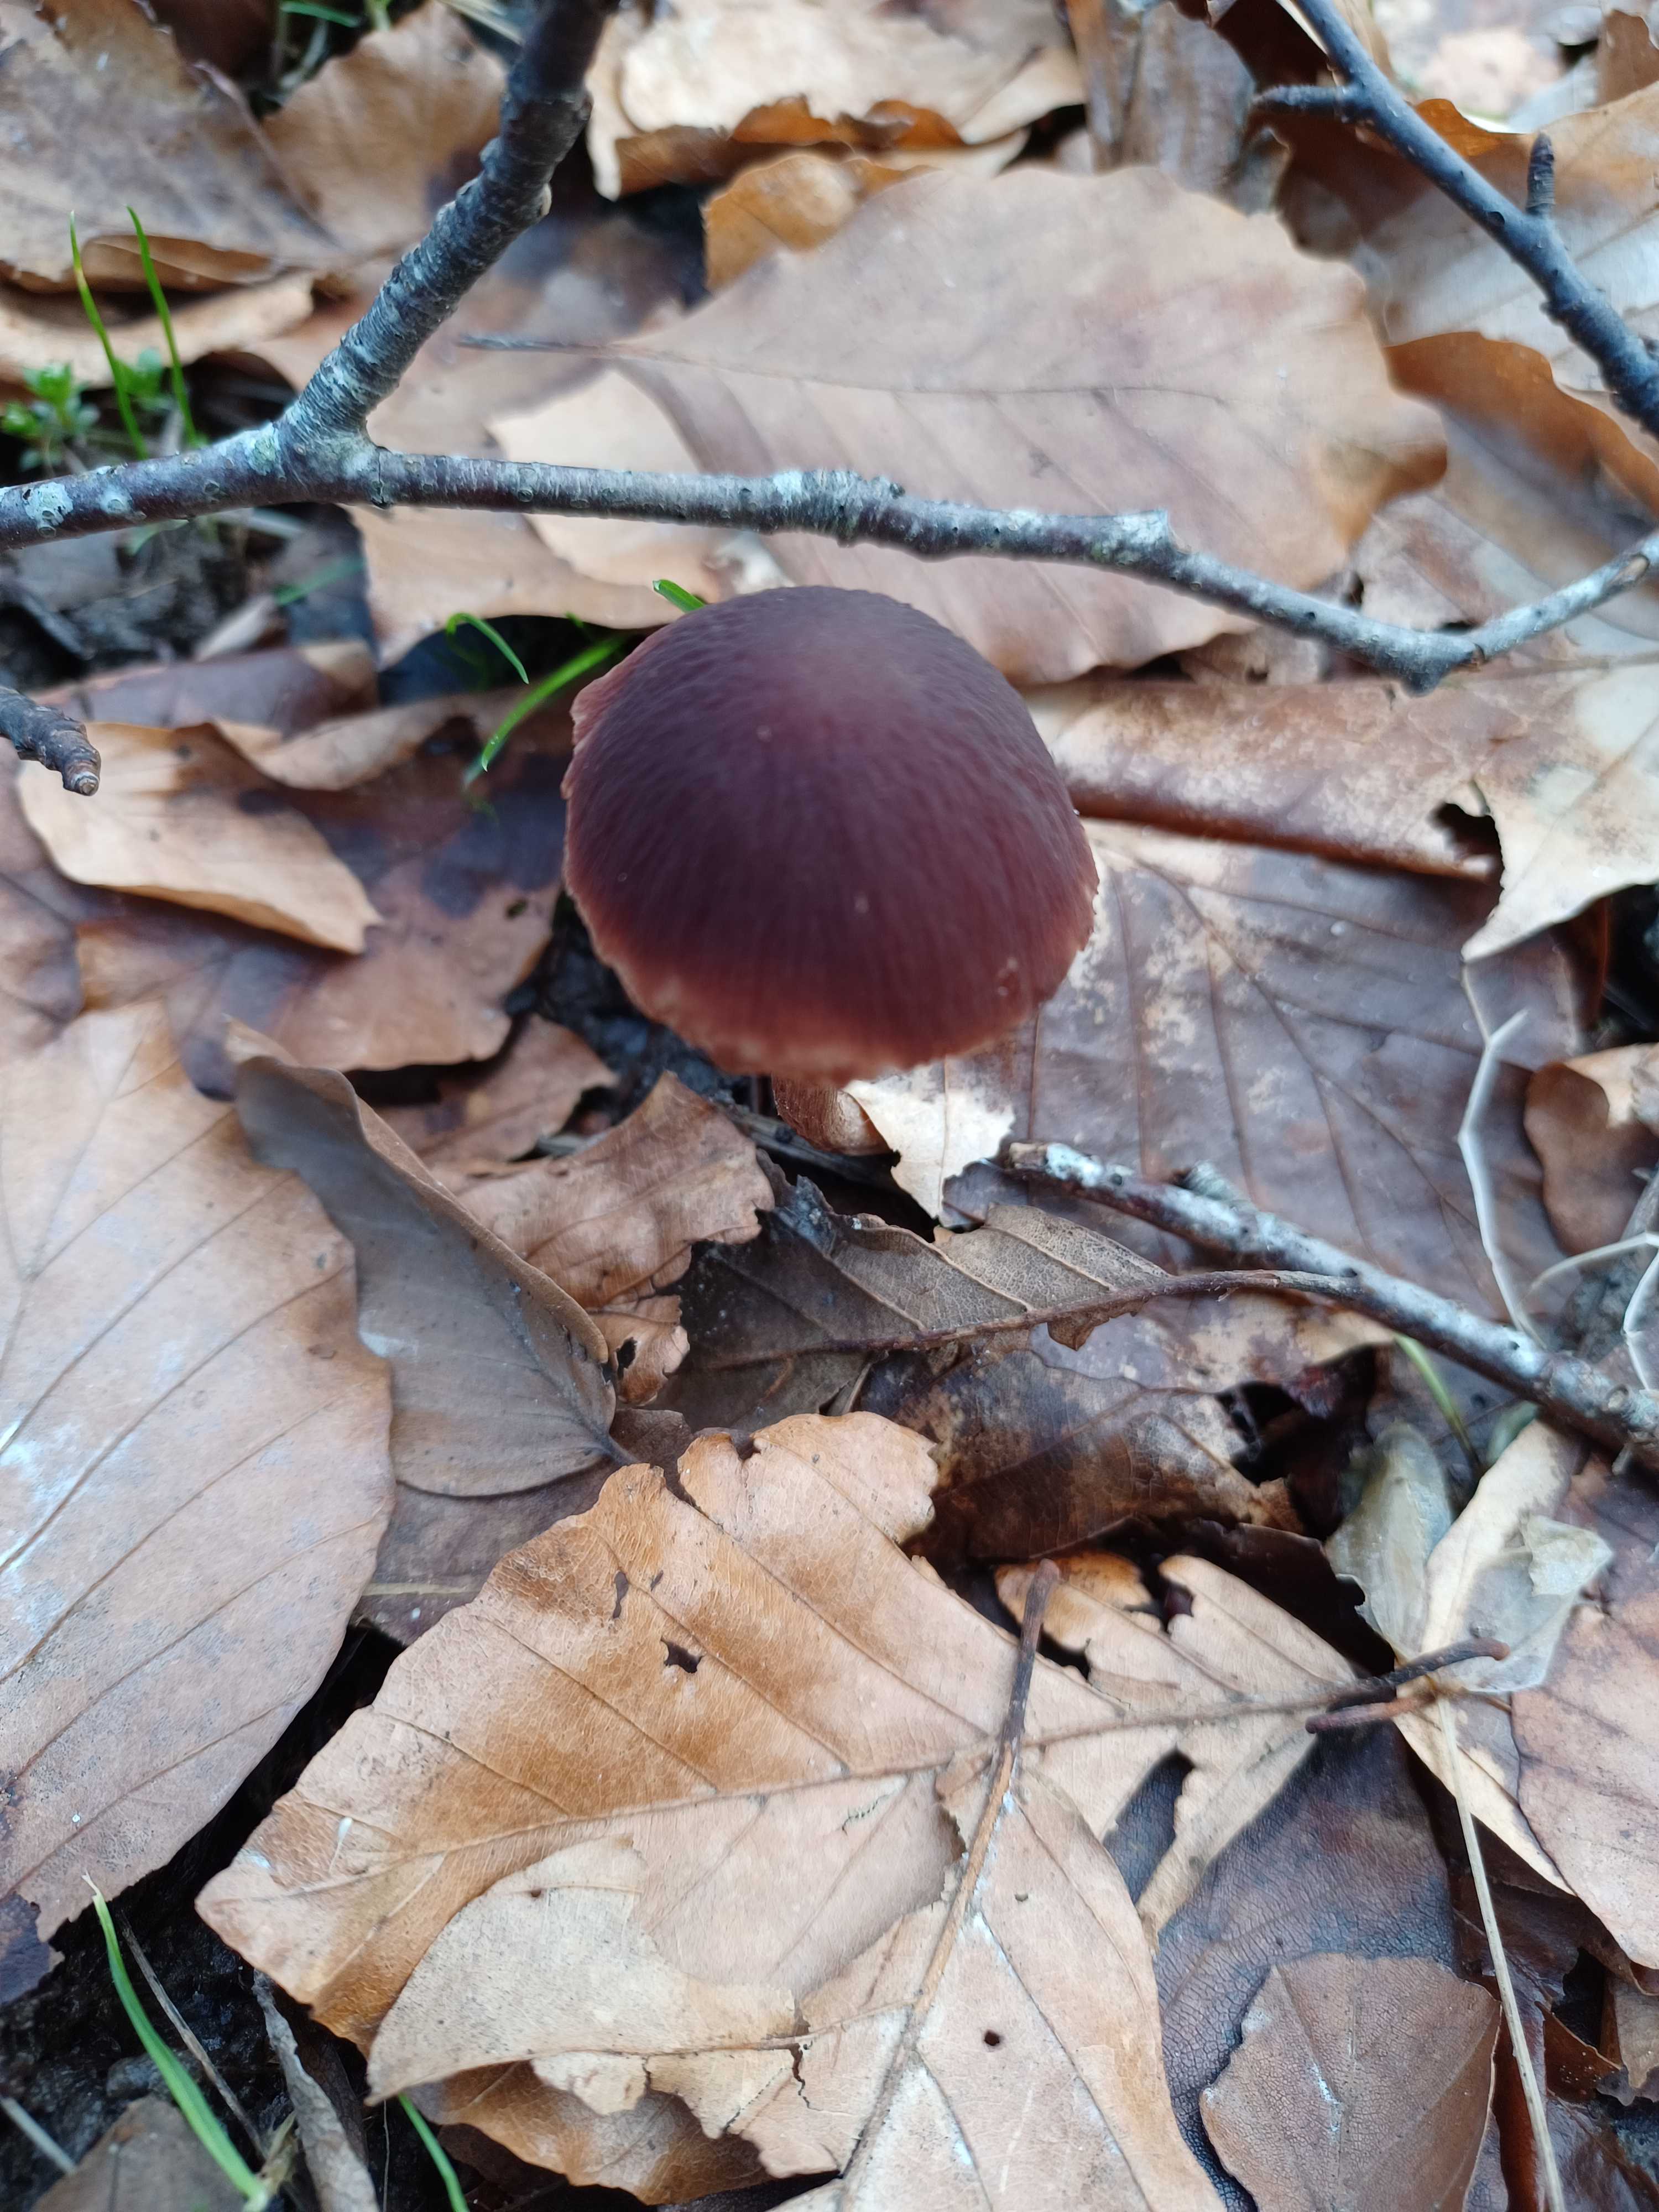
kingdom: Fungi
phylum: Basidiomycota
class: Agaricomycetes
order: Agaricales
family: Psathyrellaceae
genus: Psathyrella
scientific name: Psathyrella bipellis
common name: vinrød mørkhat
